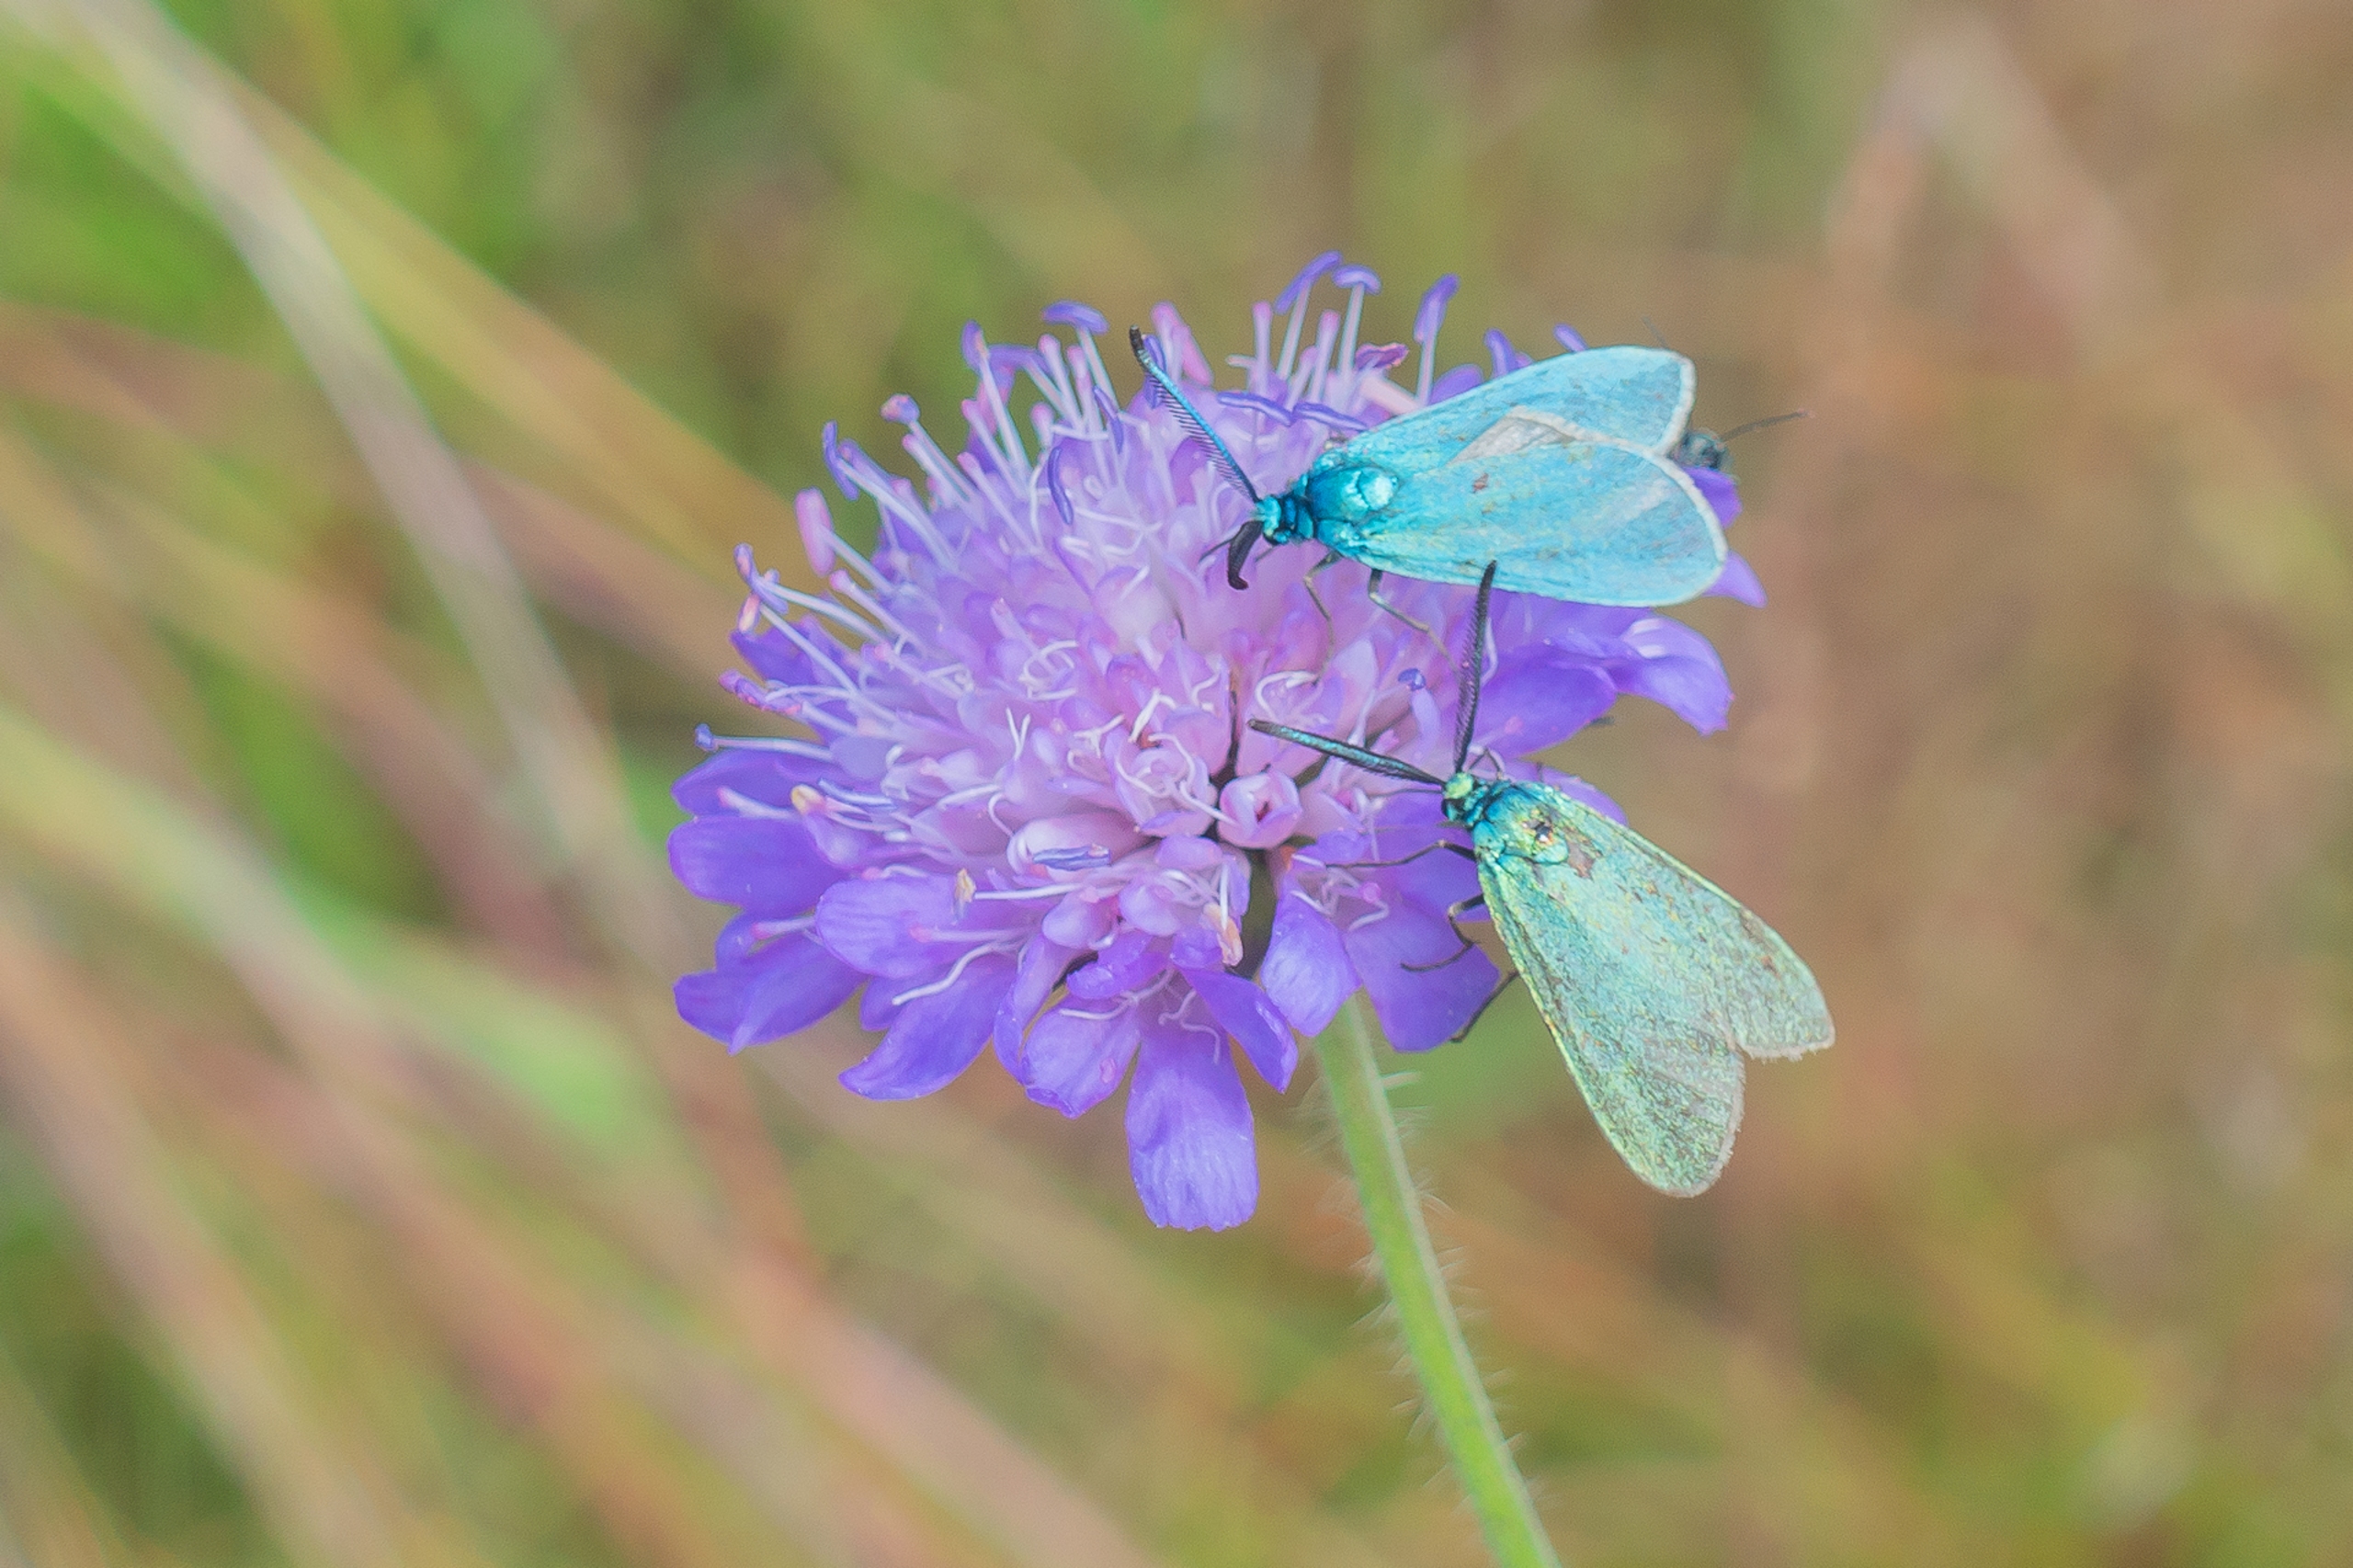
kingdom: Animalia
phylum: Arthropoda
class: Insecta
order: Lepidoptera
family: Zygaenidae
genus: Adscita
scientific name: Adscita statices
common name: Metalvinge
